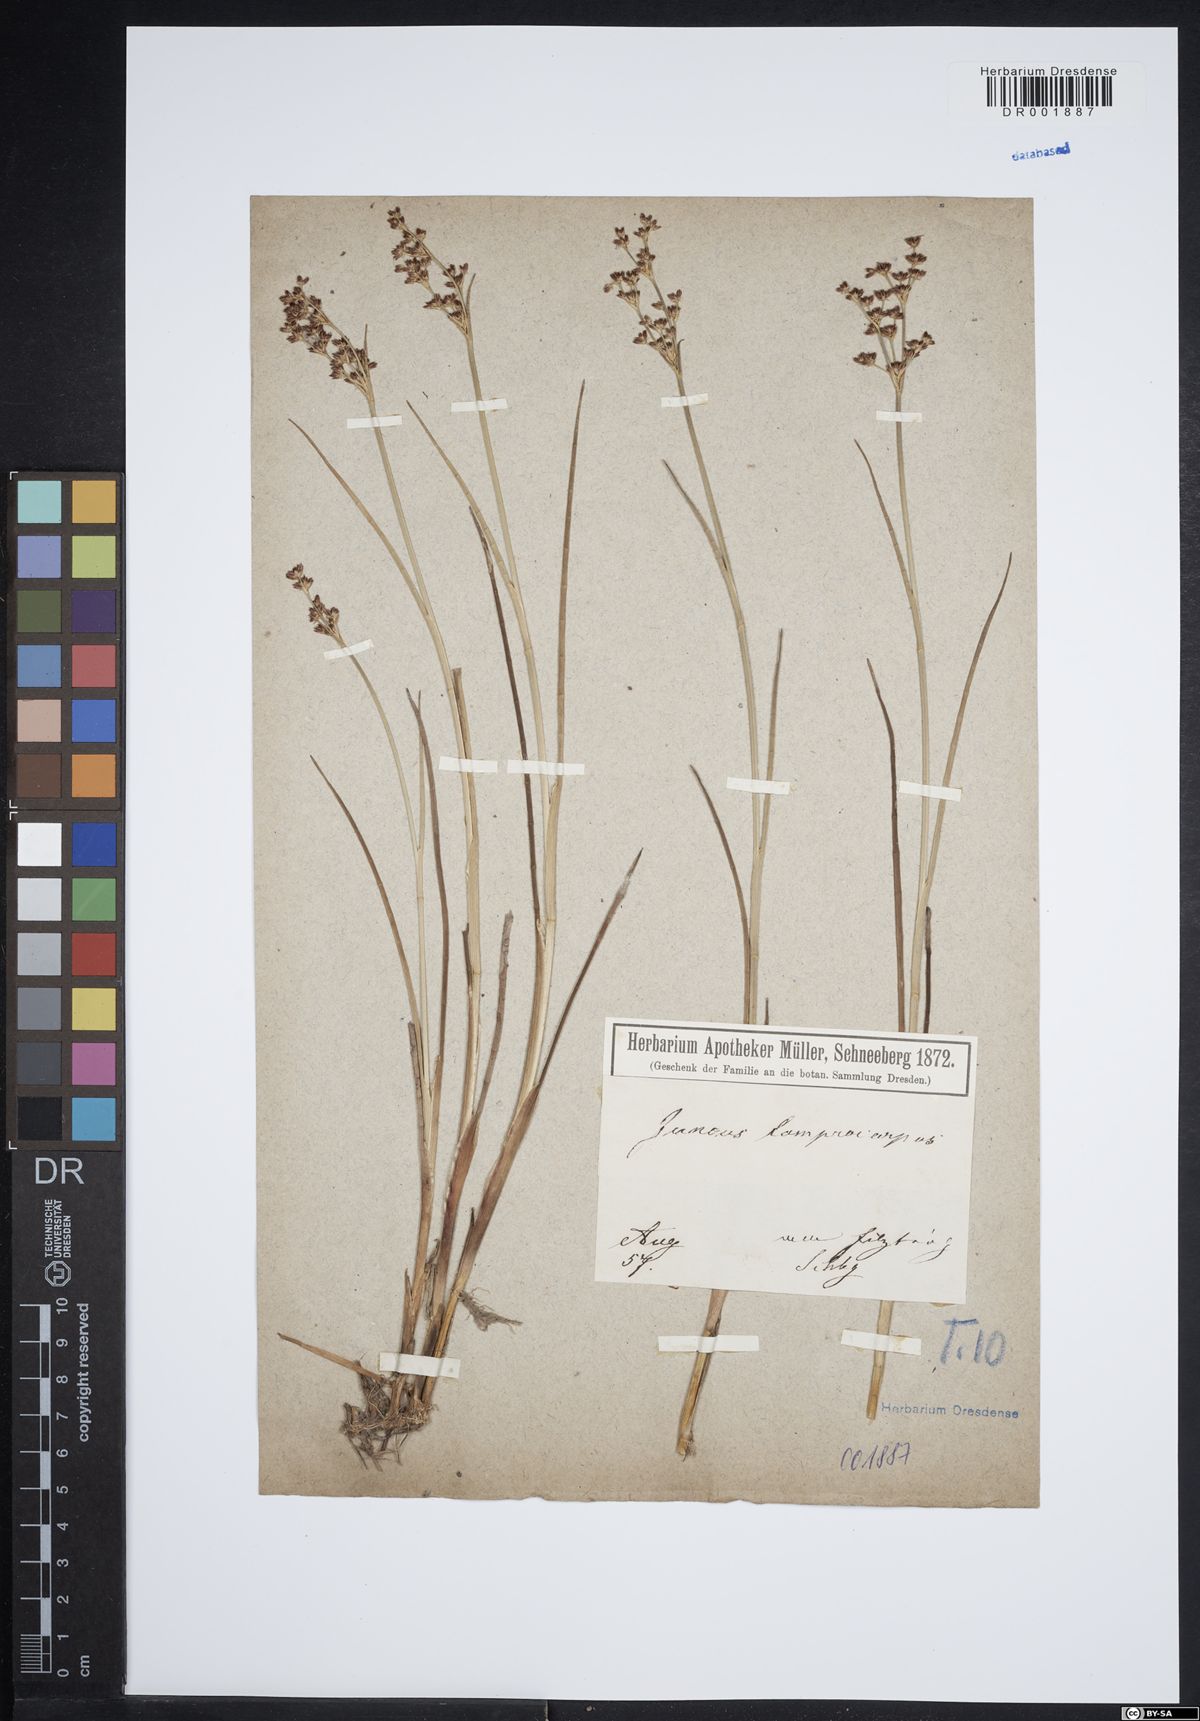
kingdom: Plantae
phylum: Tracheophyta
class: Liliopsida
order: Poales
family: Juncaceae
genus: Juncus
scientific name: Juncus articulatus
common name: Jointed rush
